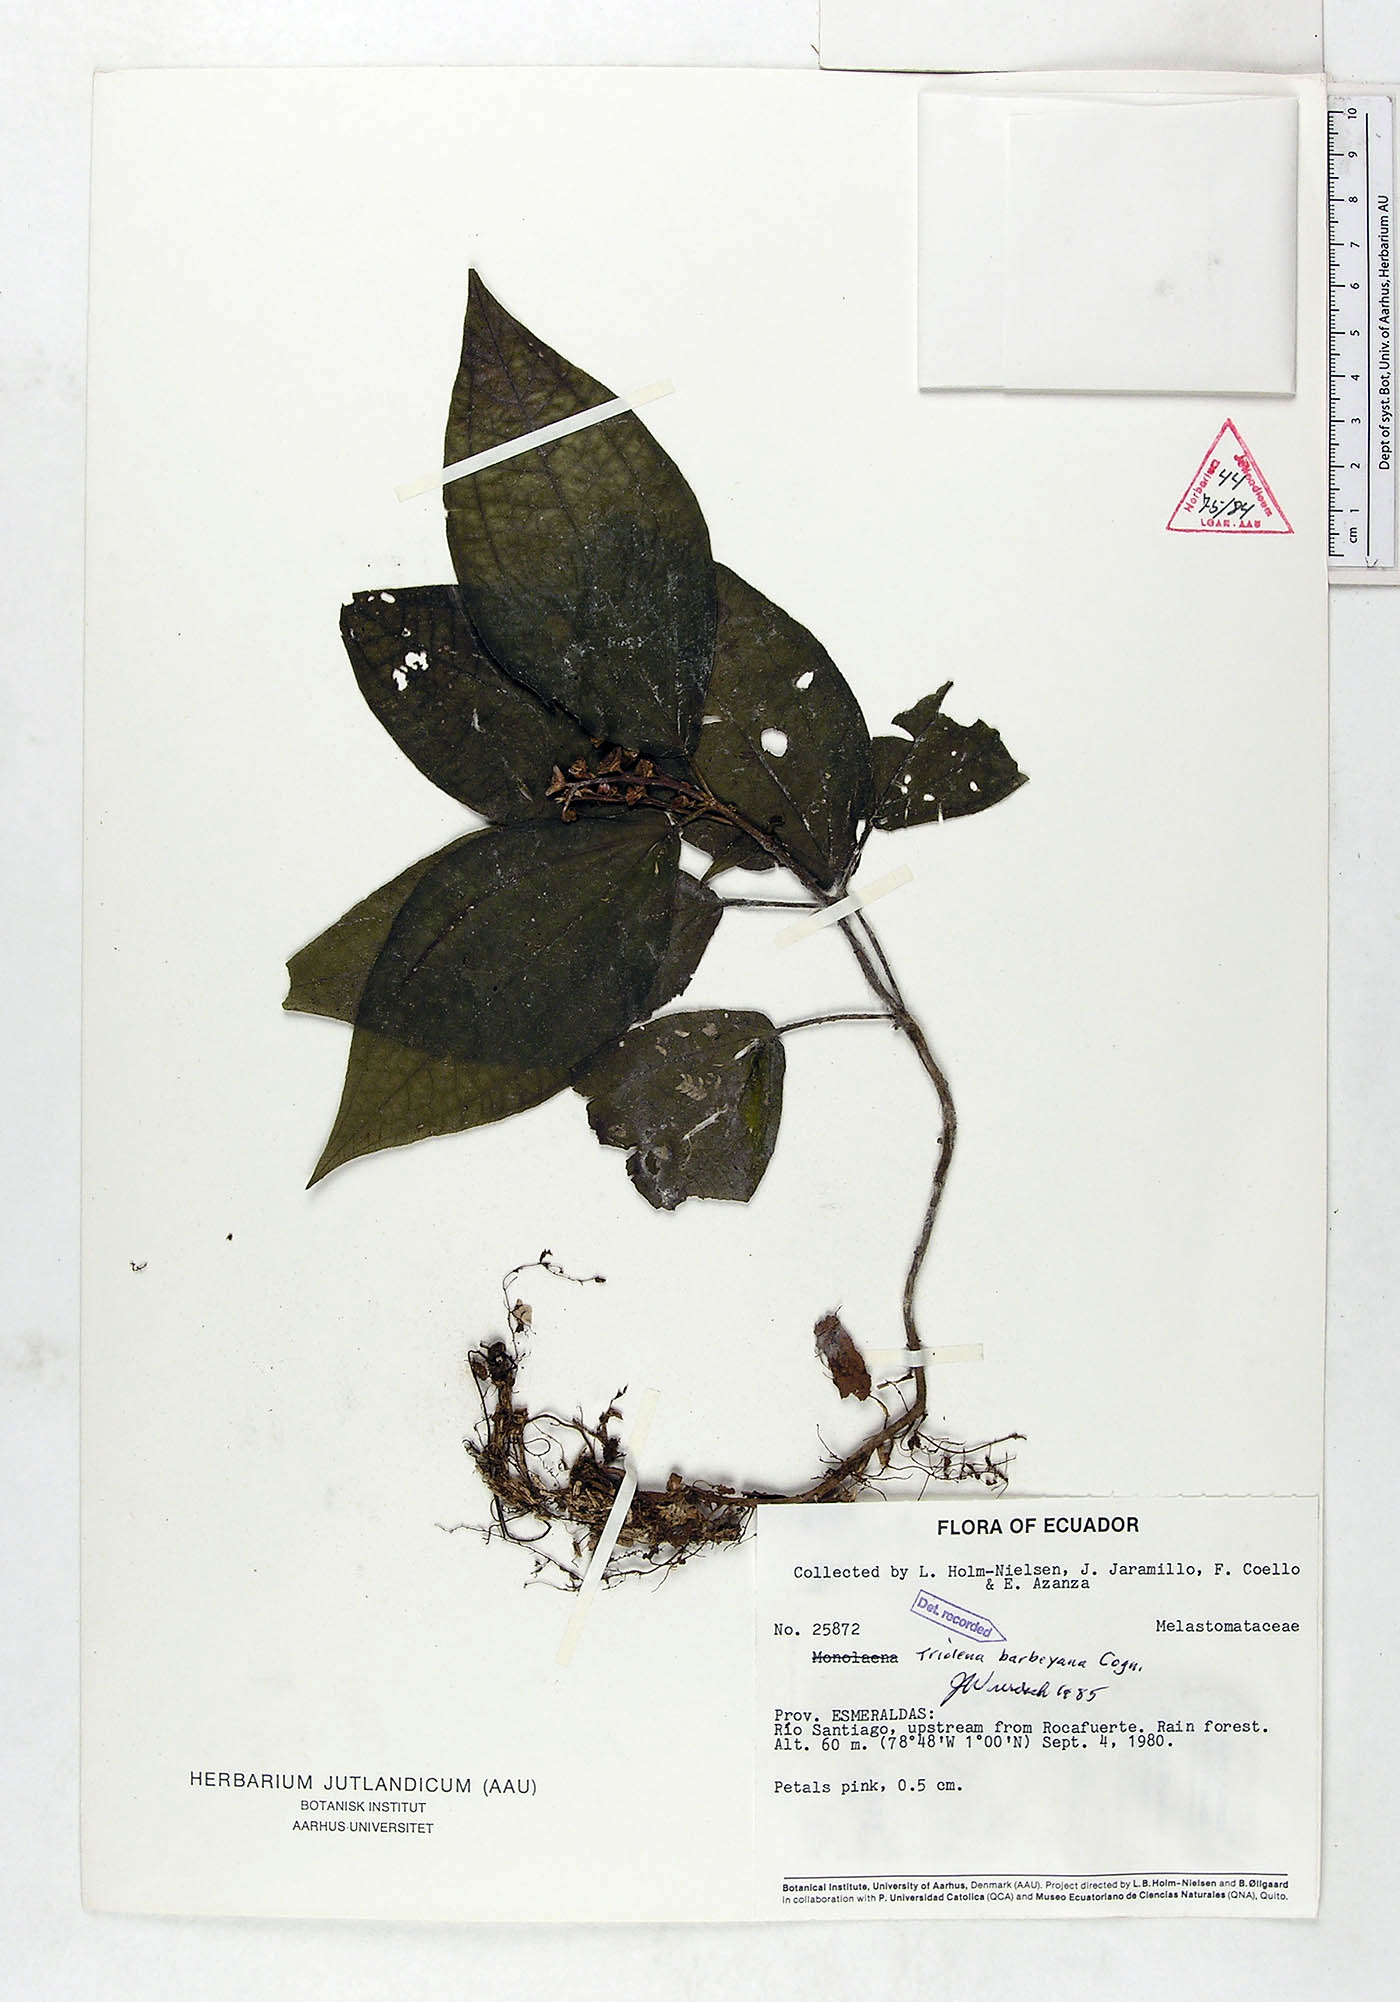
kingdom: Plantae
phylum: Tracheophyta
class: Magnoliopsida
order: Myrtales
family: Melastomataceae
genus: Triolena
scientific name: Triolena barbeyana
